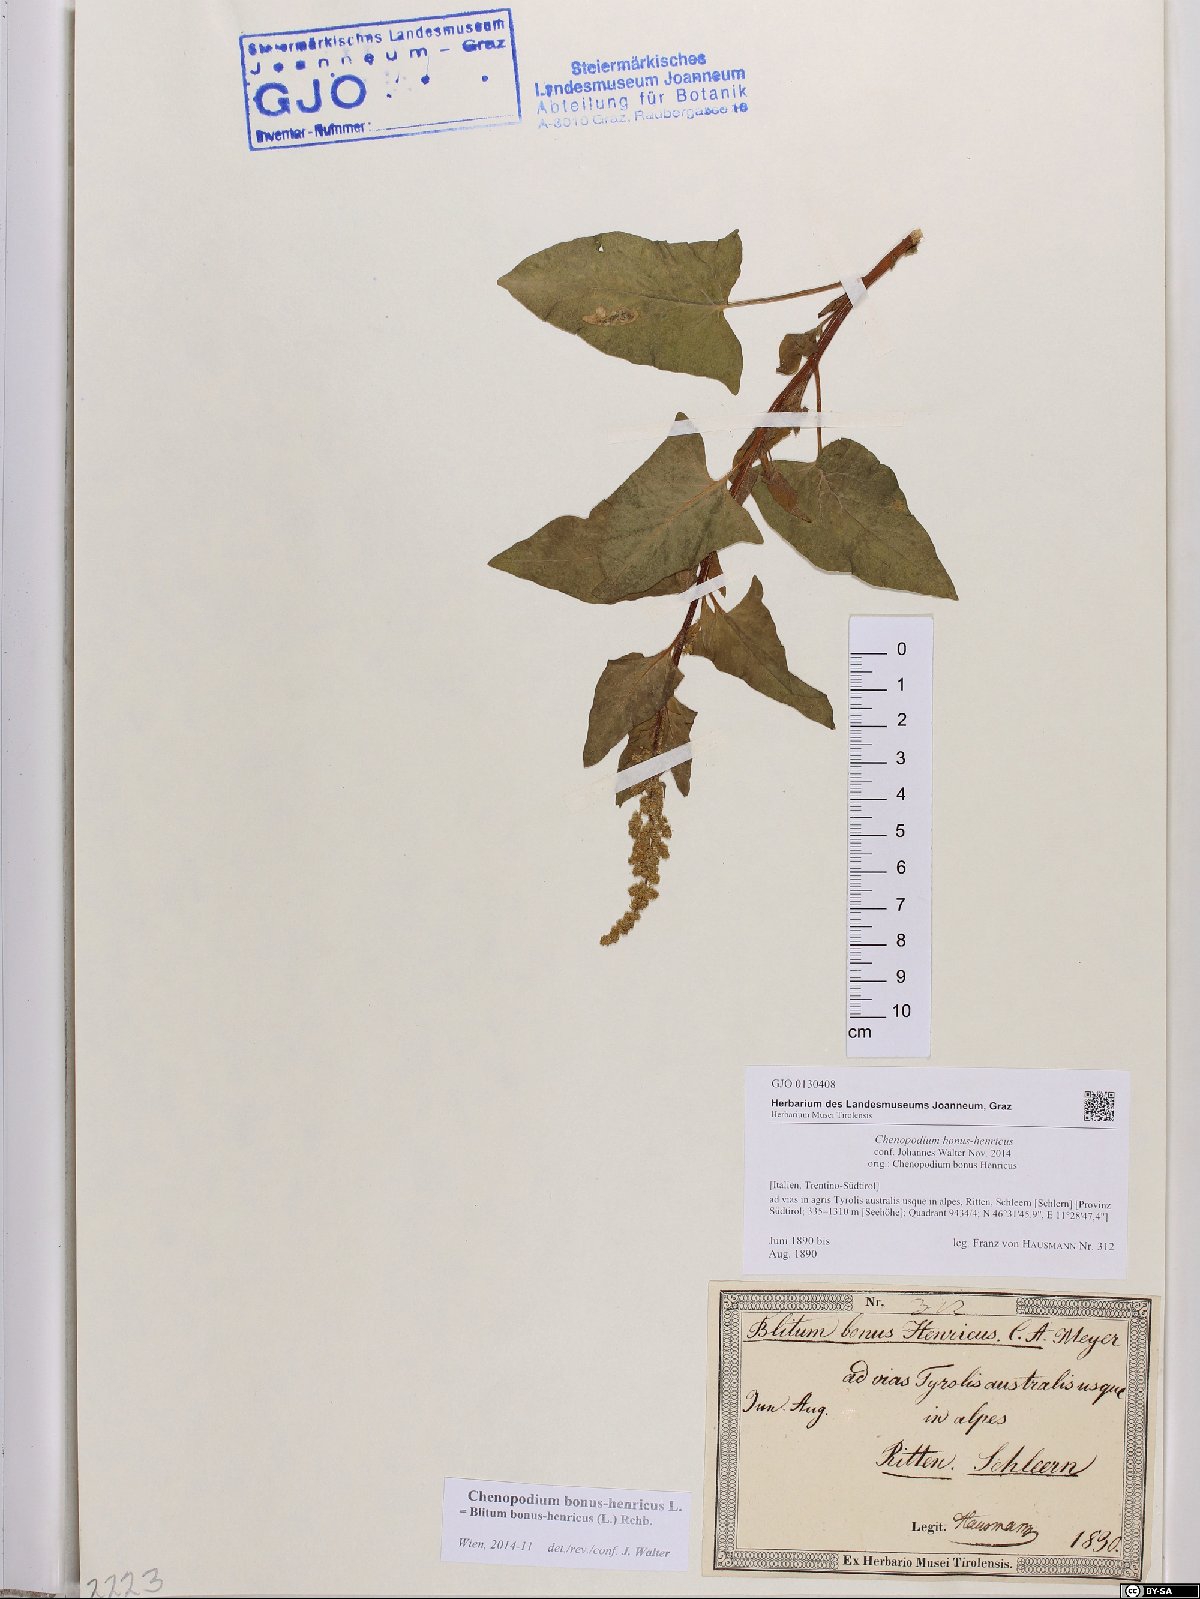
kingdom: Plantae
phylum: Tracheophyta
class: Magnoliopsida
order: Caryophyllales
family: Amaranthaceae
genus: Blitum
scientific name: Blitum bonus-henricus
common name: Good king henry
